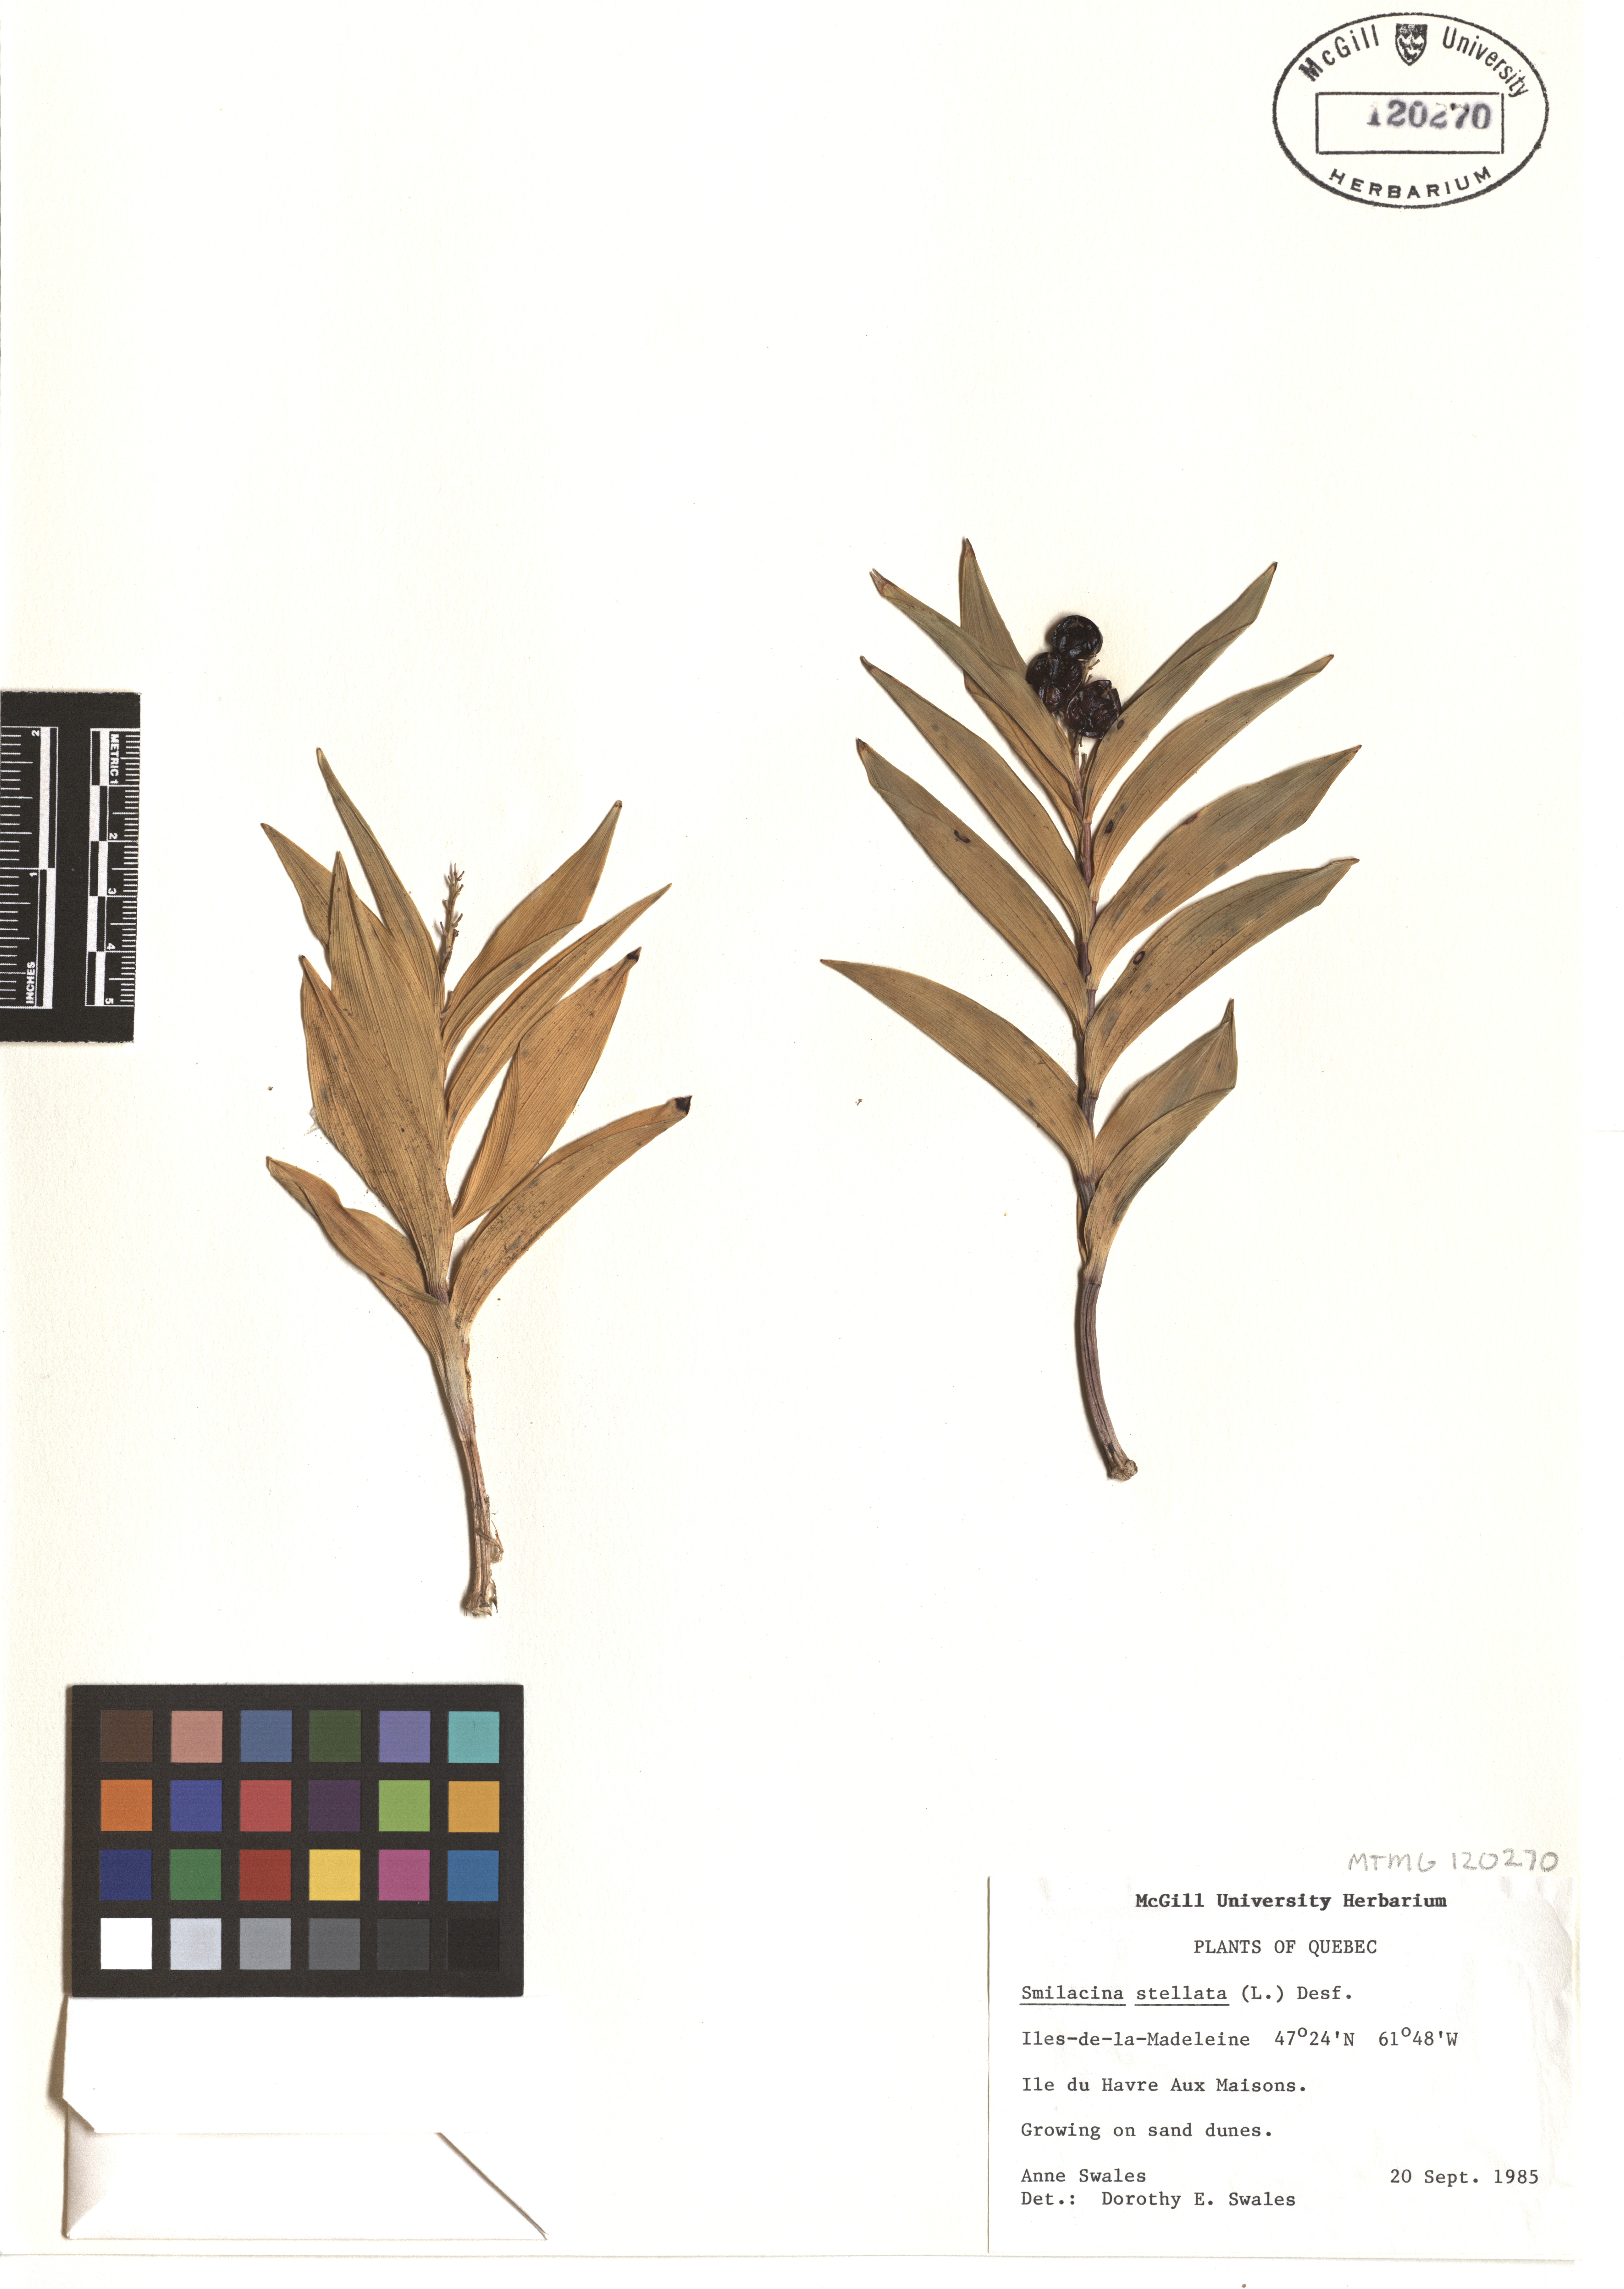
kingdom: Plantae
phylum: Tracheophyta
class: Liliopsida
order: Asparagales
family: Asparagaceae
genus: Maianthemum
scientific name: Maianthemum stellatum
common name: Little false solomon's seal
